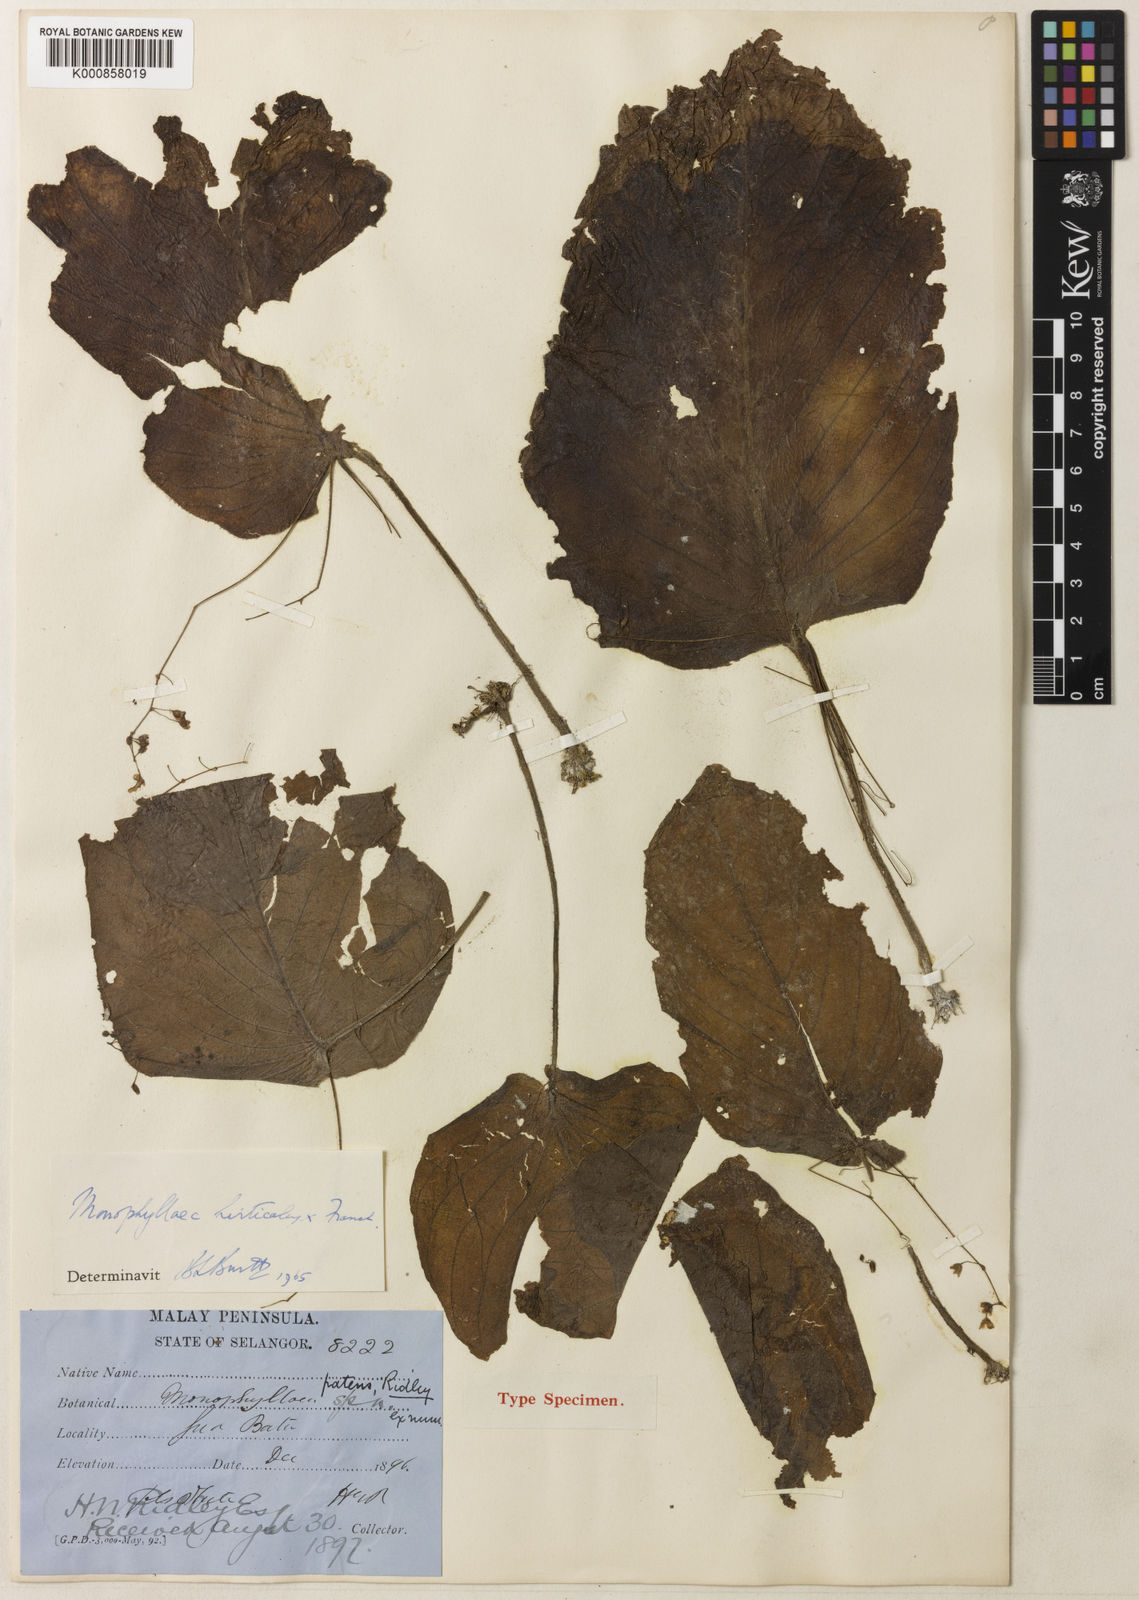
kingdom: Plantae
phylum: Tracheophyta
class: Magnoliopsida
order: Lamiales
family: Gesneriaceae
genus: Monophyllaea
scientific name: Monophyllaea hirticalyx
